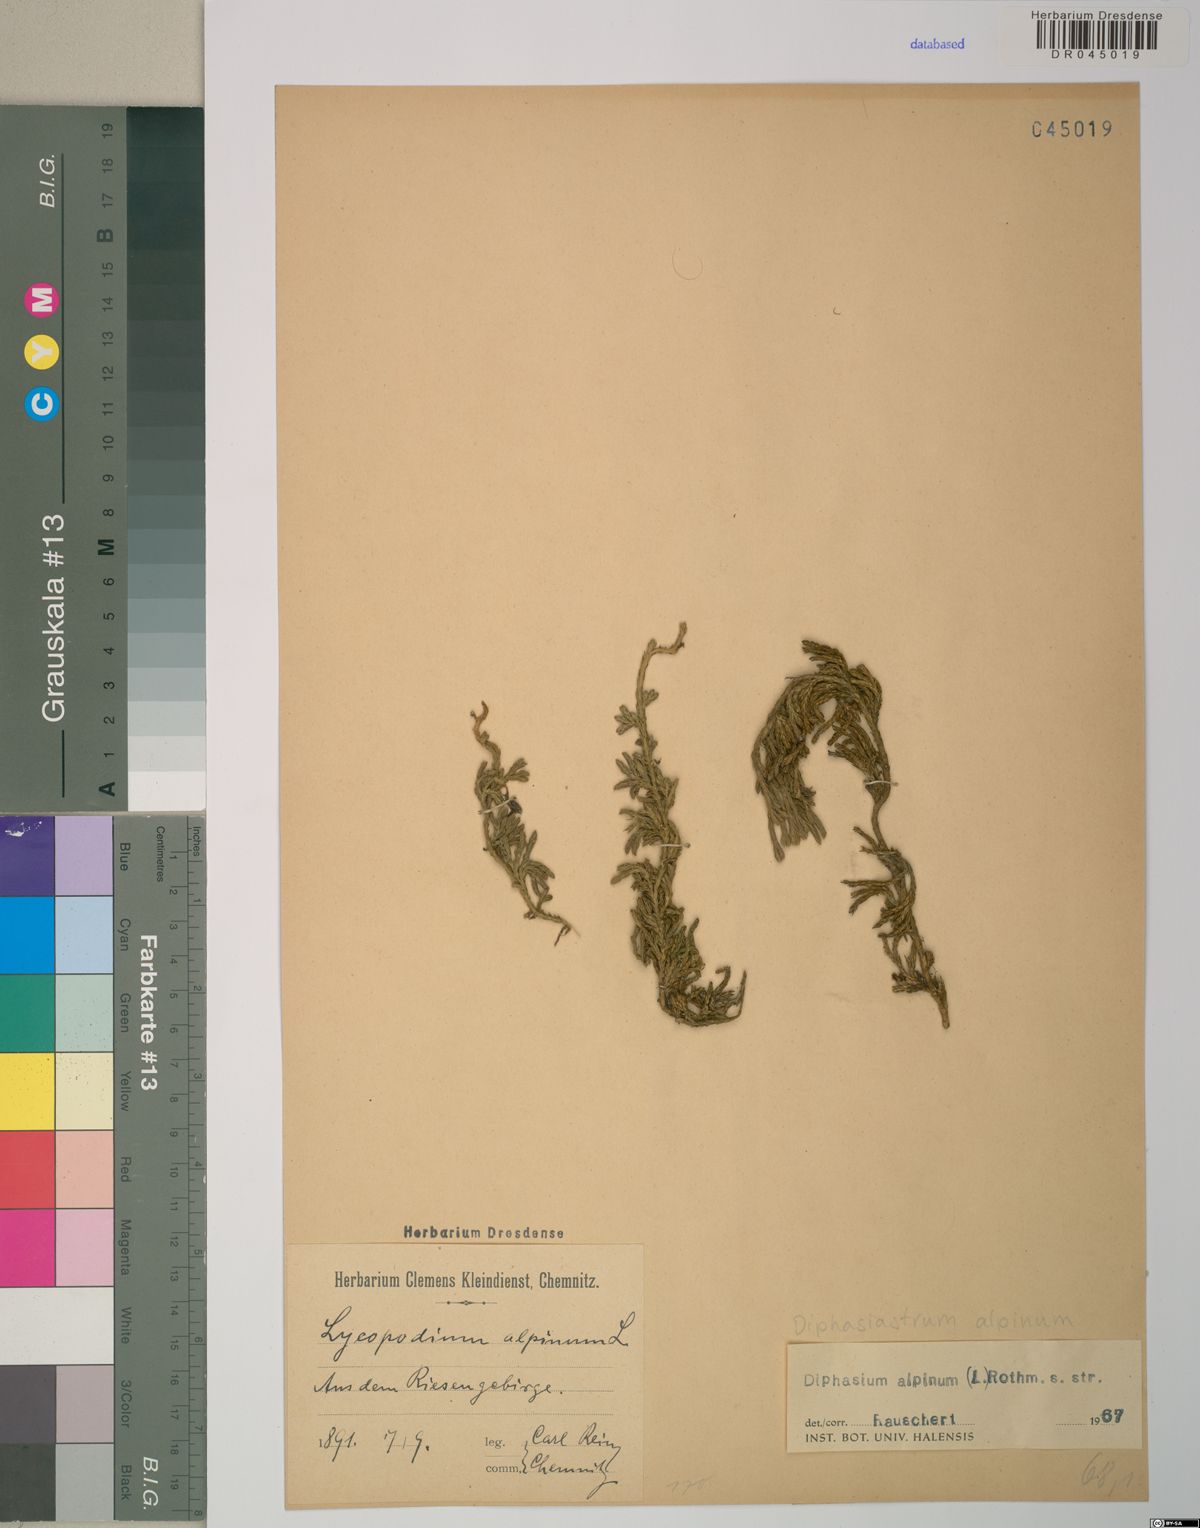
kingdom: Plantae
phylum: Tracheophyta
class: Lycopodiopsida
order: Lycopodiales
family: Lycopodiaceae
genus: Diphasiastrum
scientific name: Diphasiastrum alpinum
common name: Alpine clubmoss
